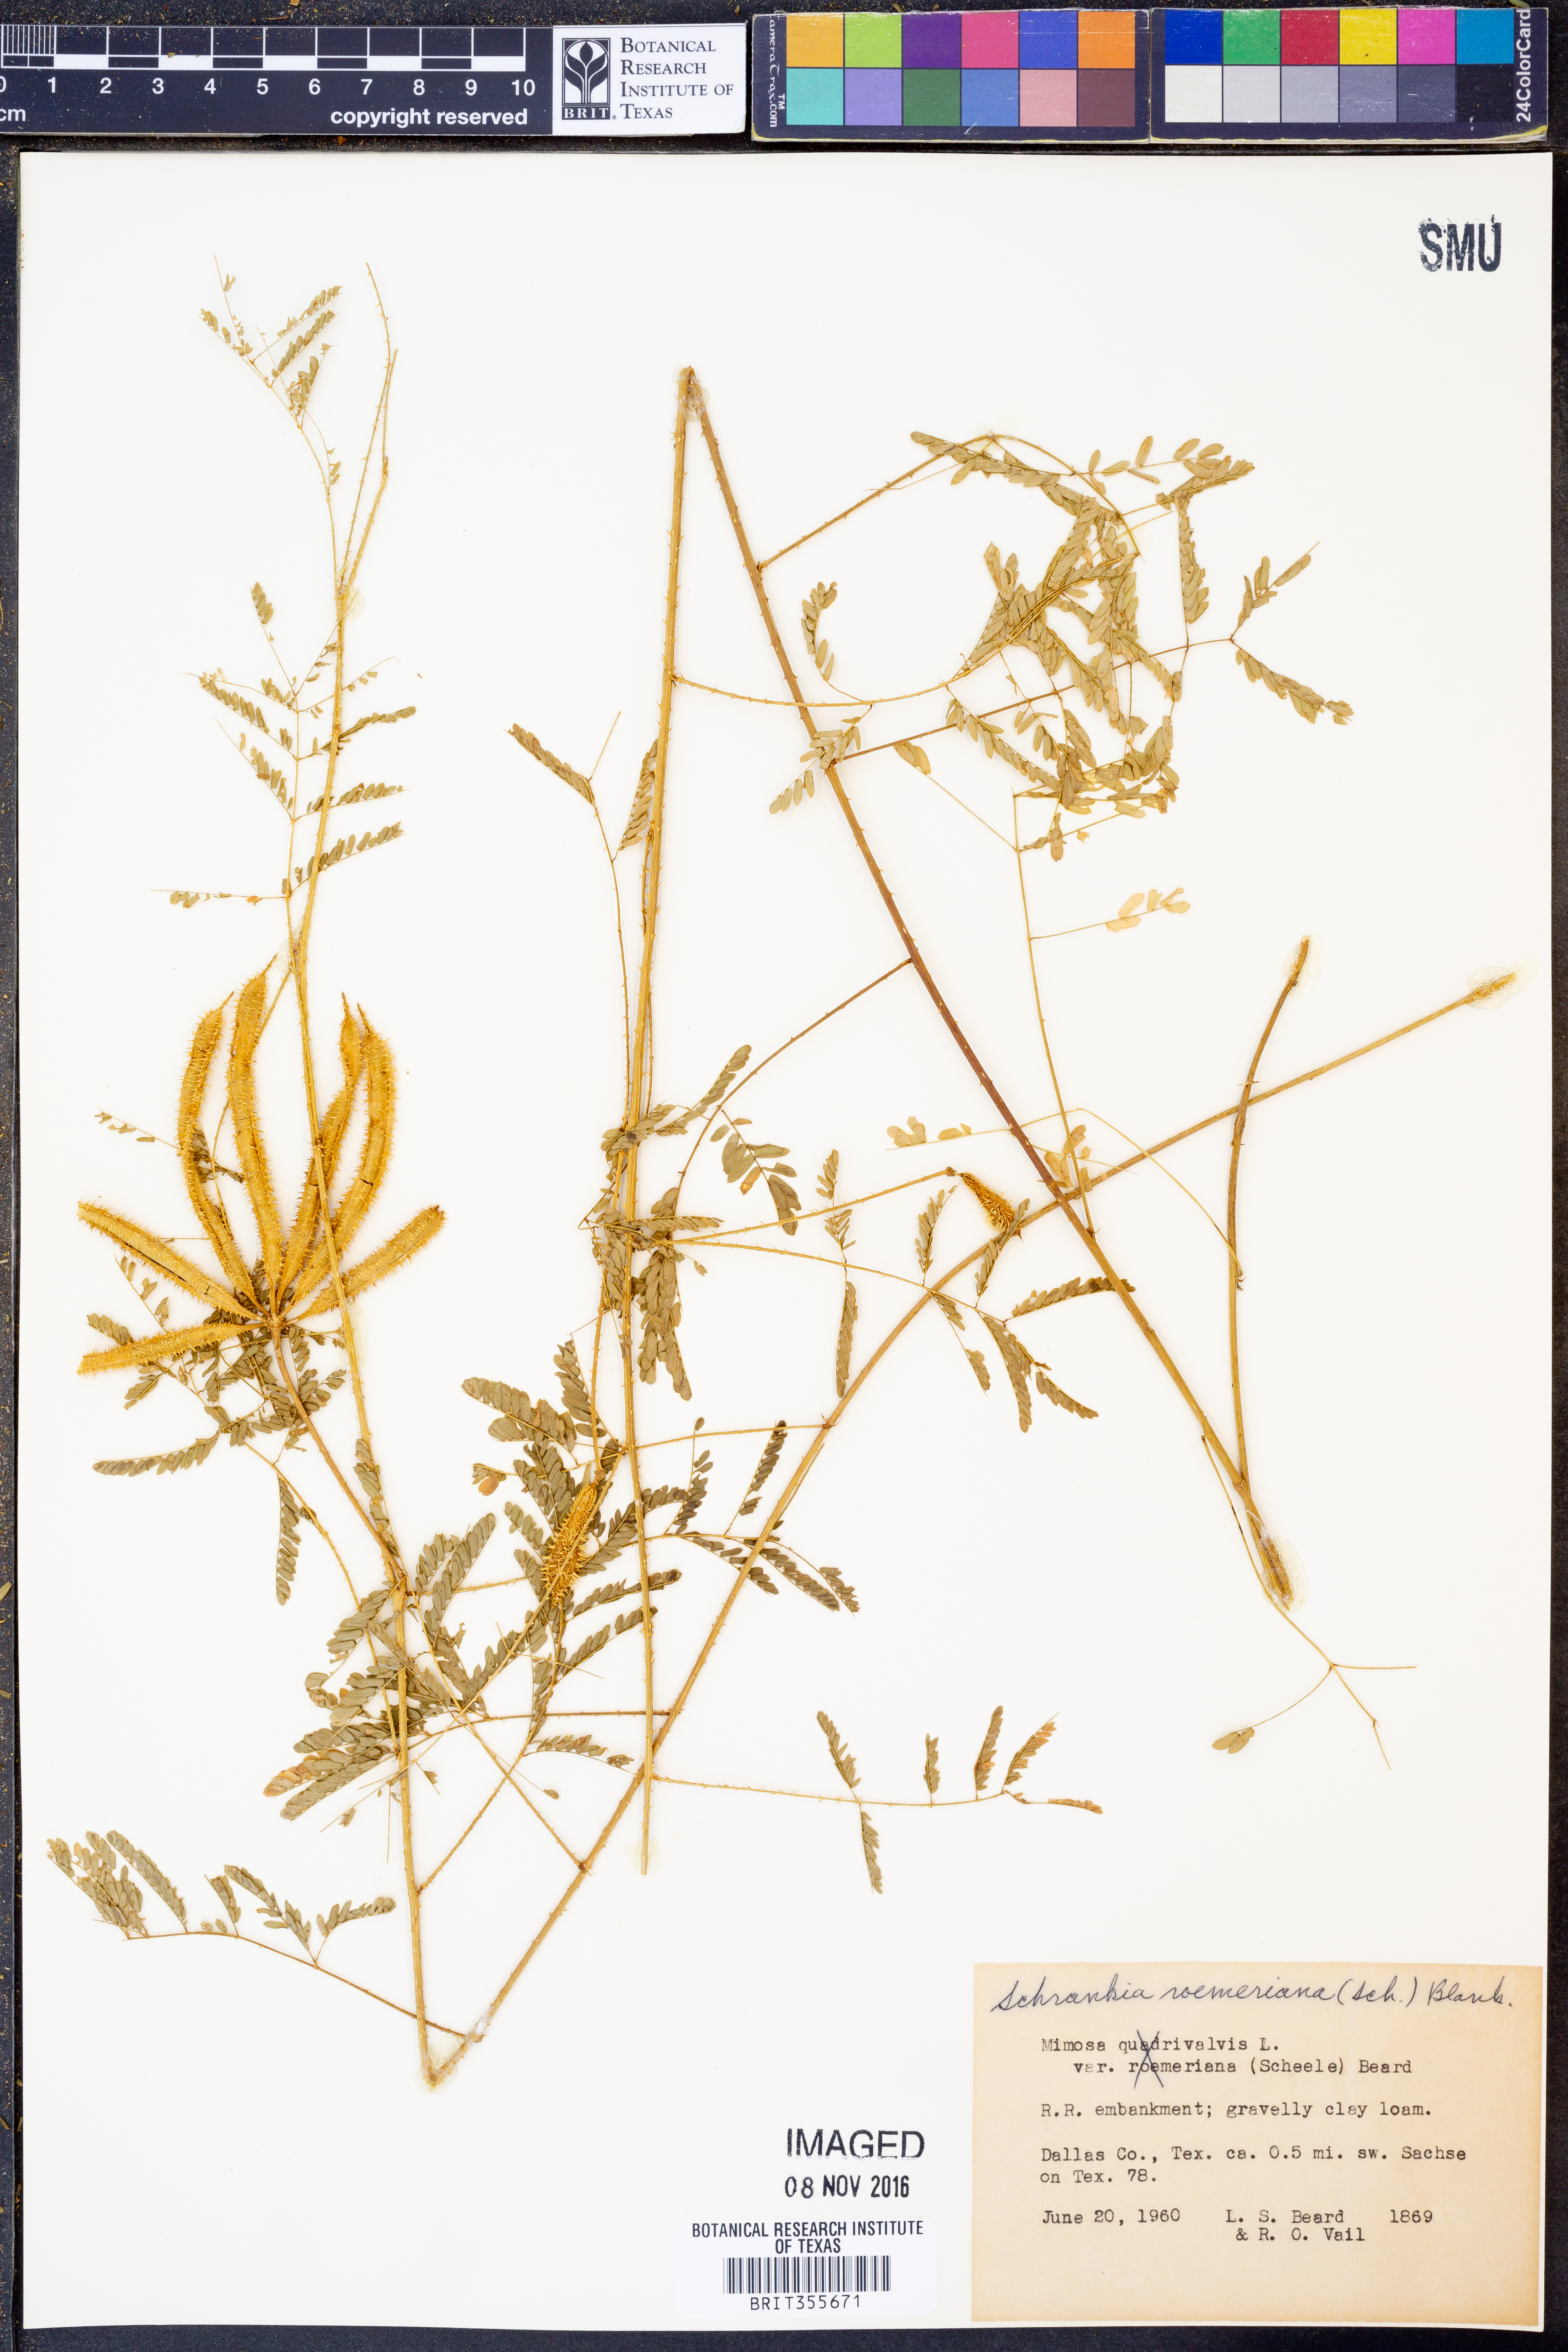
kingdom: Plantae
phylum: Tracheophyta
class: Magnoliopsida
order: Fabales
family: Fabaceae
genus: Mimosa
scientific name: Mimosa quadrivalvis
